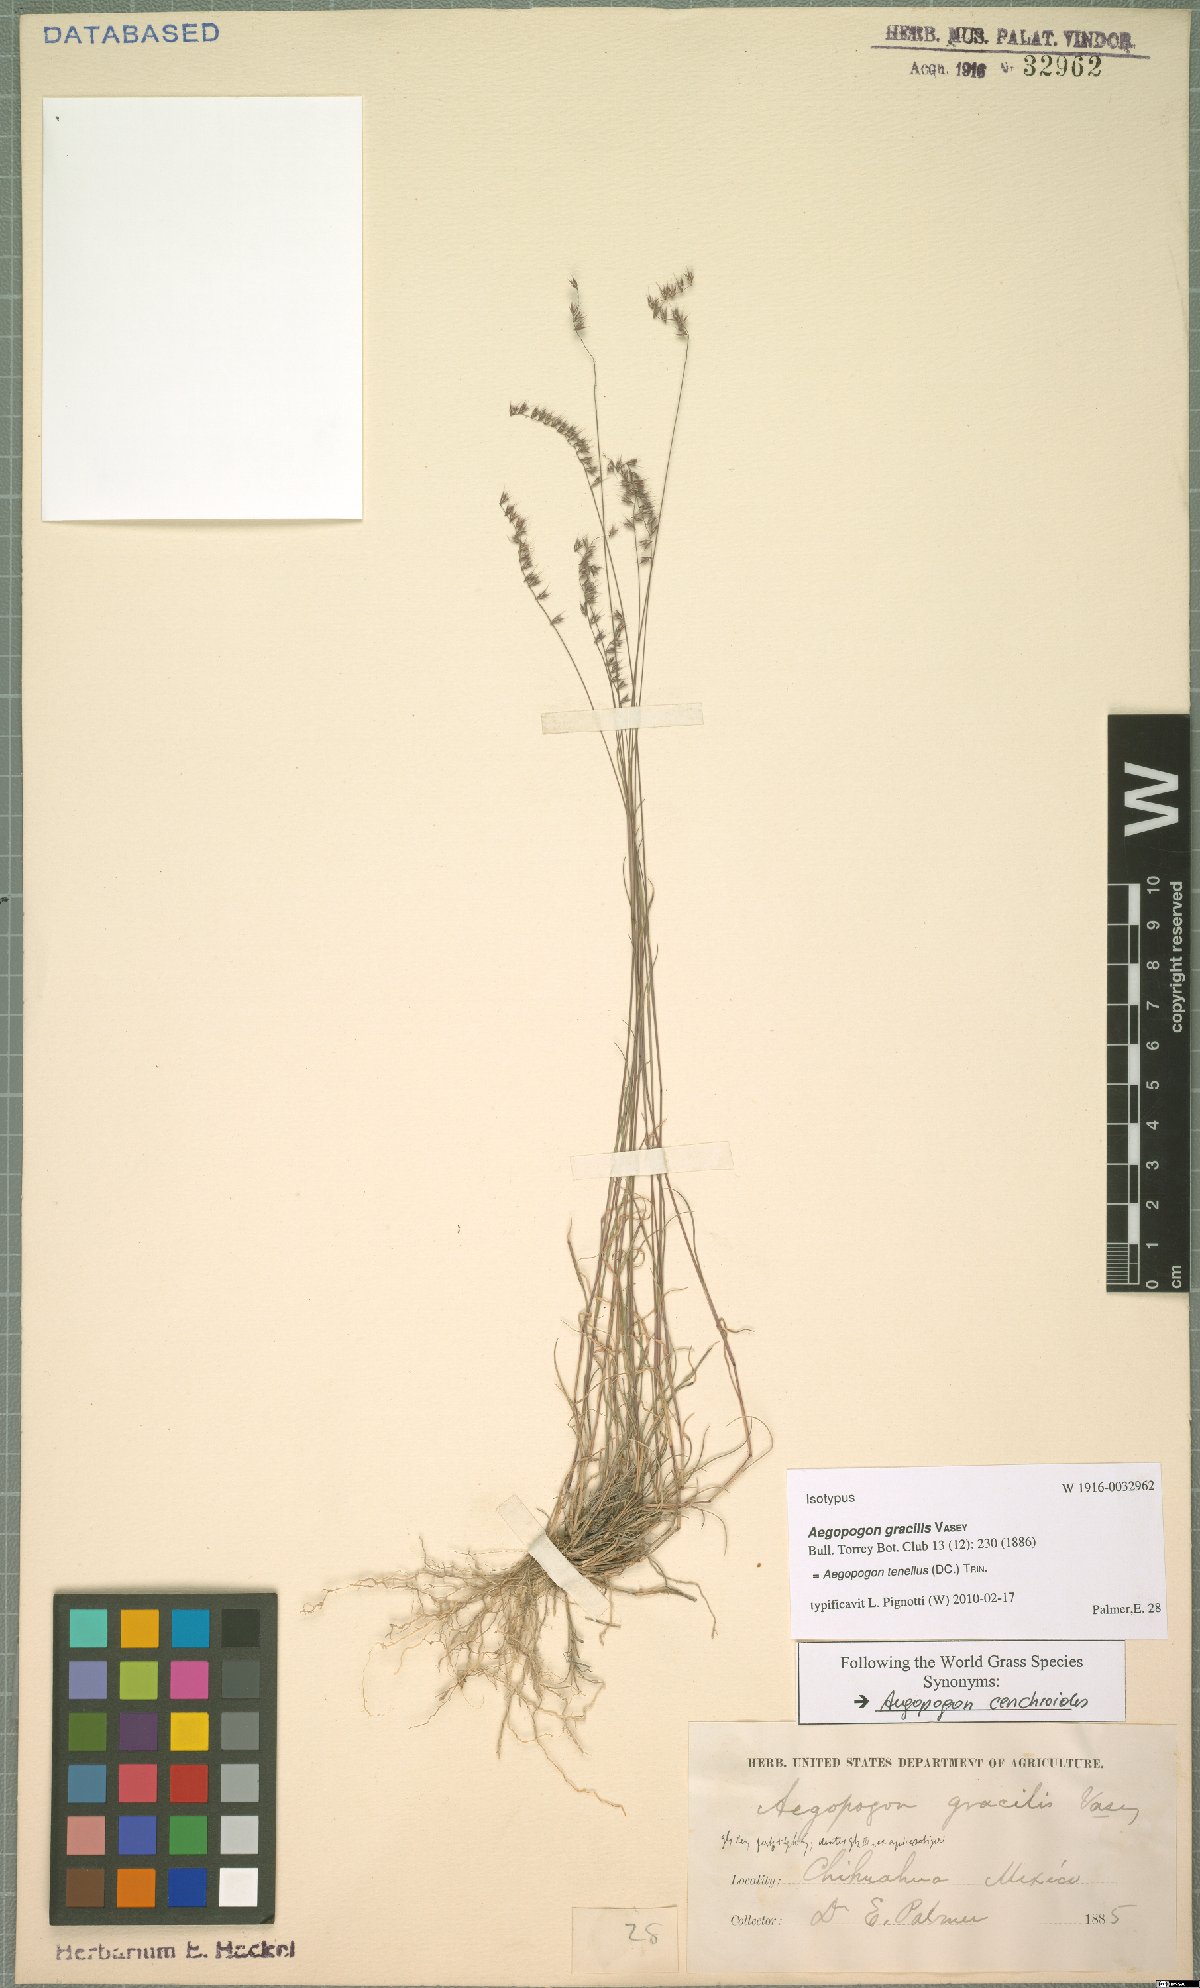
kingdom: Plantae
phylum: Tracheophyta
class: Liliopsida
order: Poales
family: Poaceae
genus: Muhlenbergia
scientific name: Muhlenbergia uniseta
